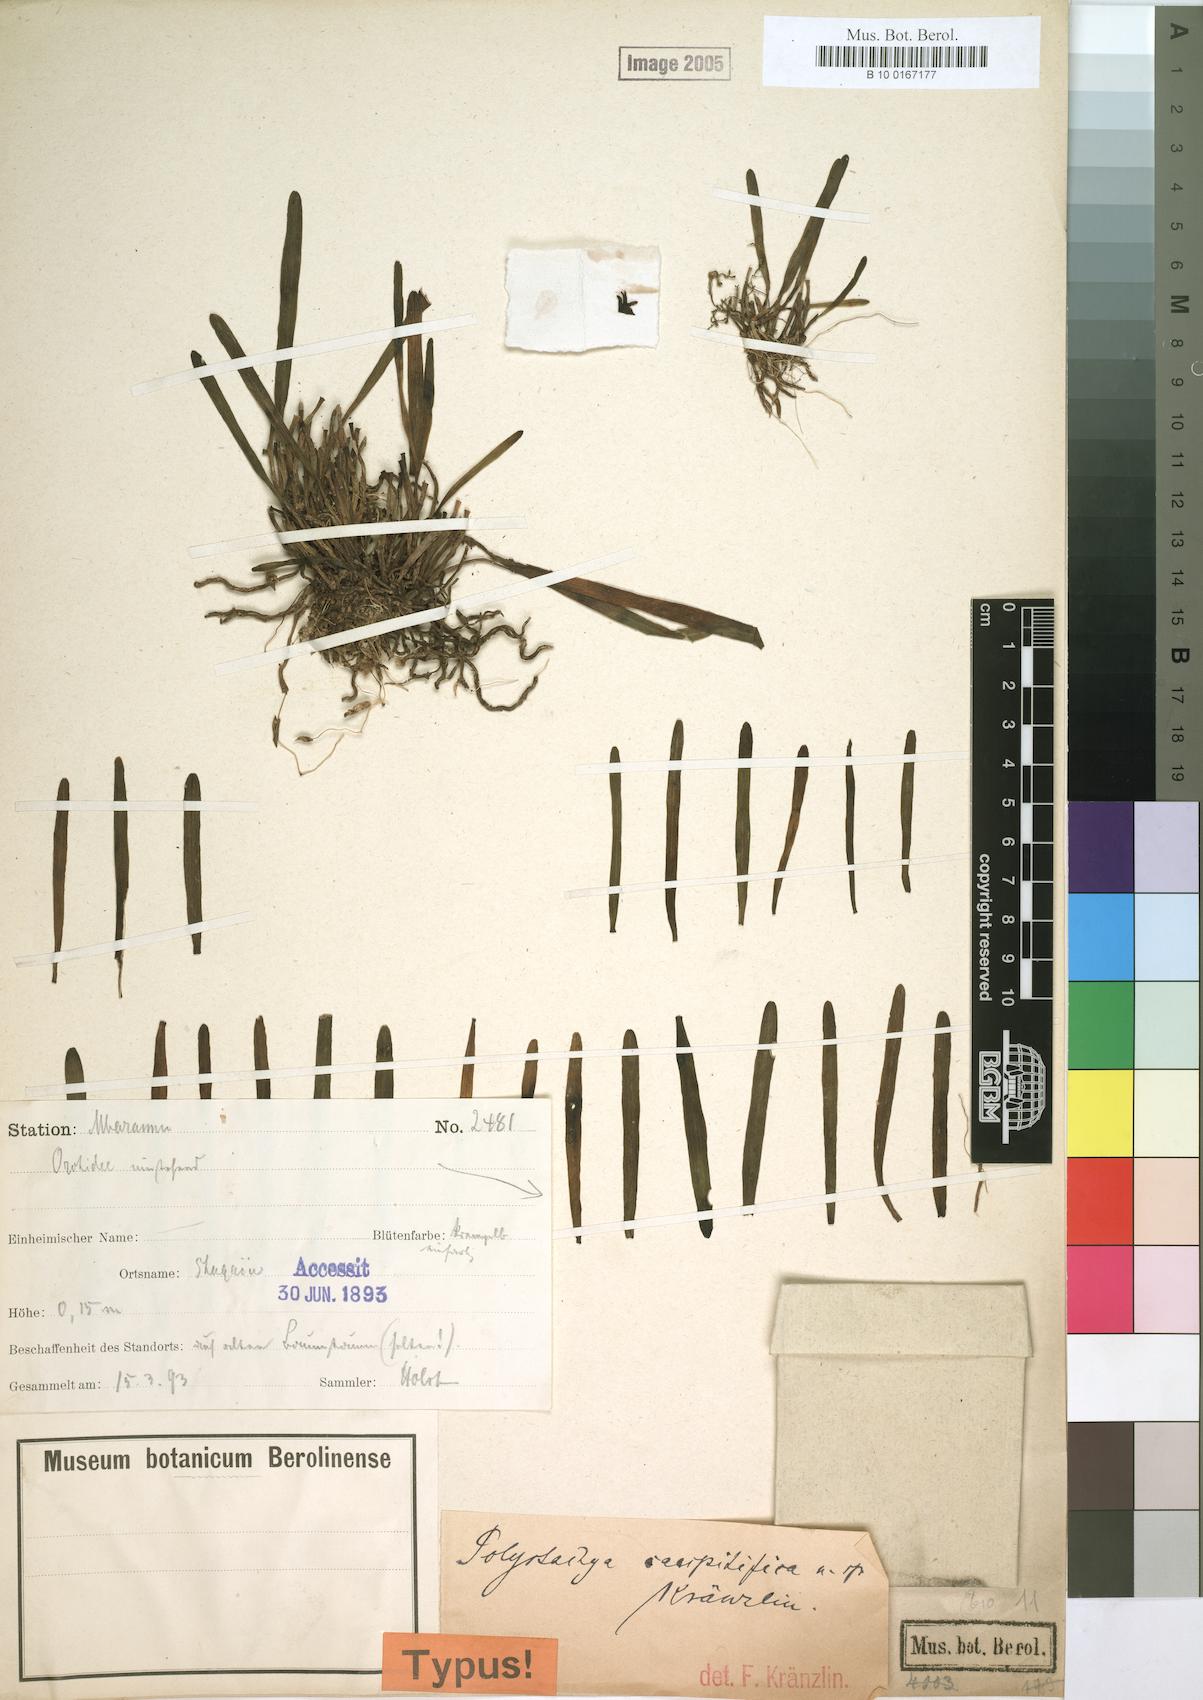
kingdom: Plantae
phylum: Tracheophyta
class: Liliopsida
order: Asparagales
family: Orchidaceae
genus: Polystachya
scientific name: Polystachya caespitifica
